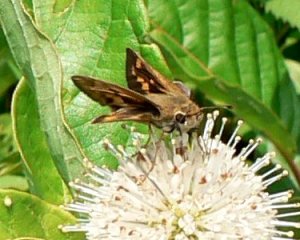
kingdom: Animalia
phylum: Arthropoda
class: Insecta
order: Lepidoptera
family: Hesperiidae
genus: Polites
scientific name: Polites coras
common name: Peck's Skipper
